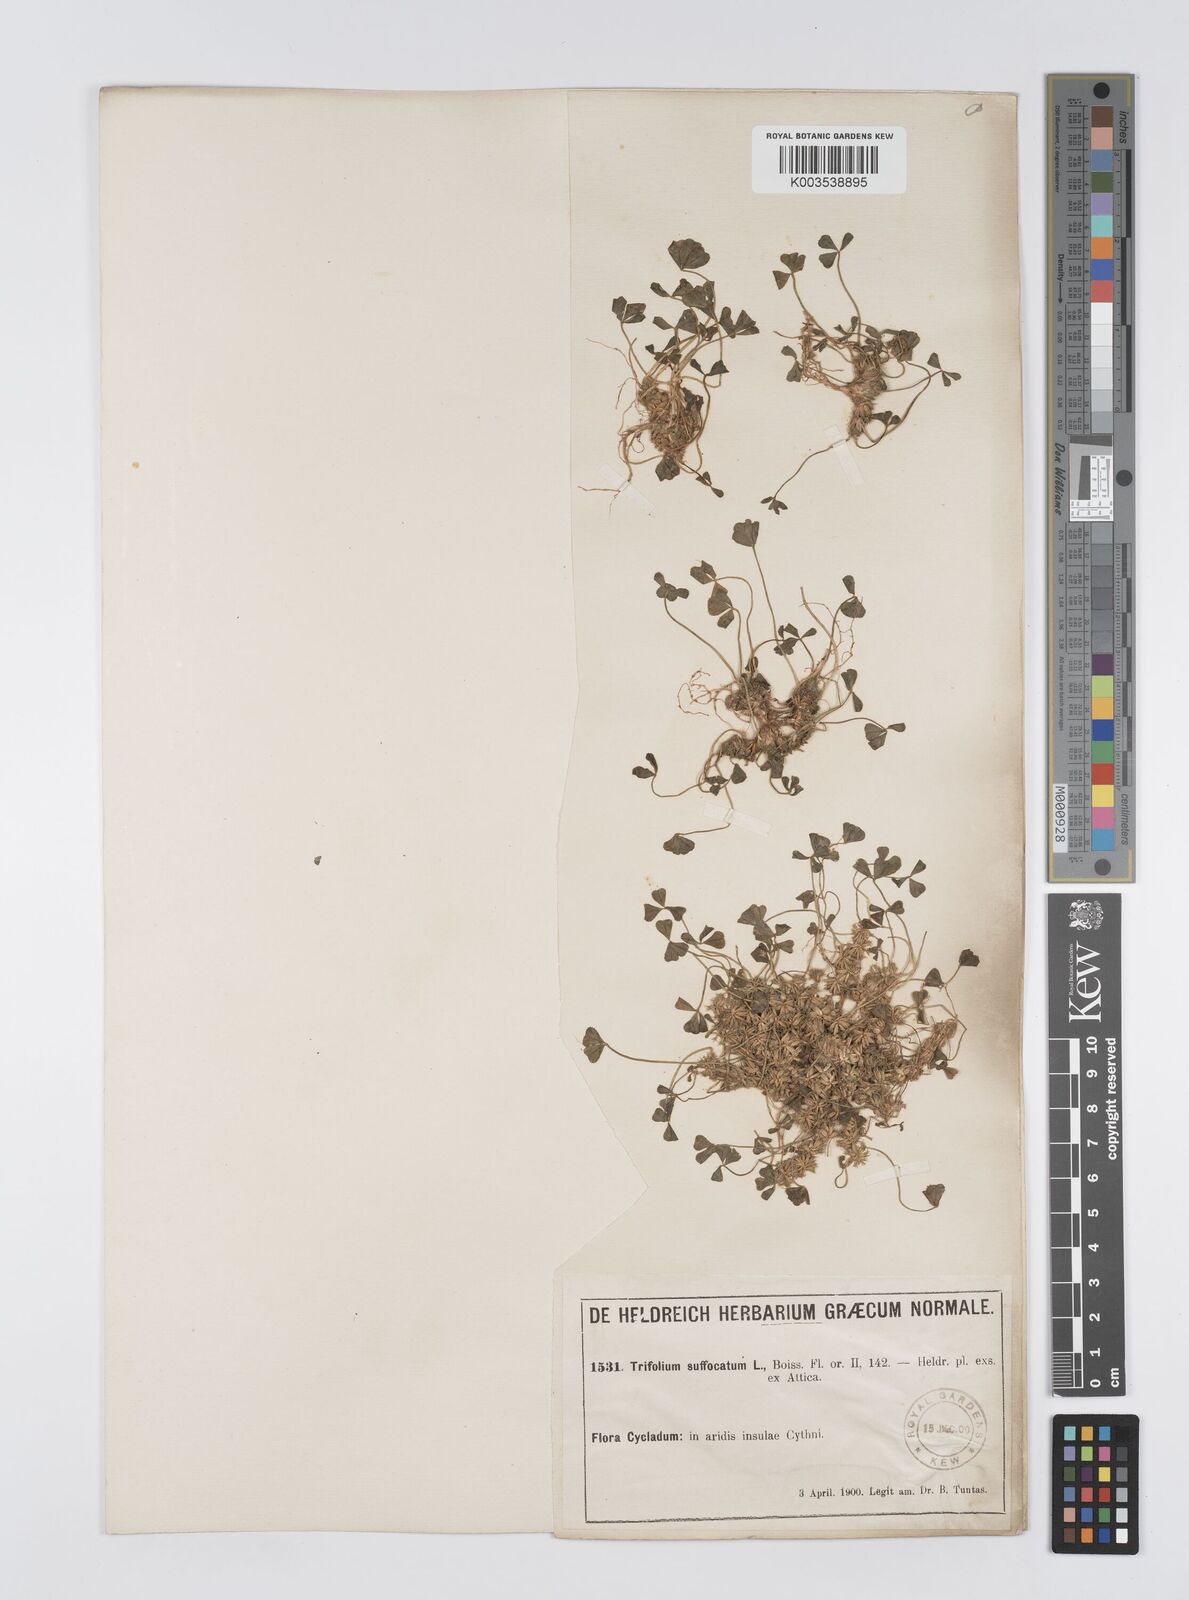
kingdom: Plantae
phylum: Tracheophyta
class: Magnoliopsida
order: Fabales
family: Fabaceae
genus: Trifolium
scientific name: Trifolium suffocatum
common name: Suffocated clover
